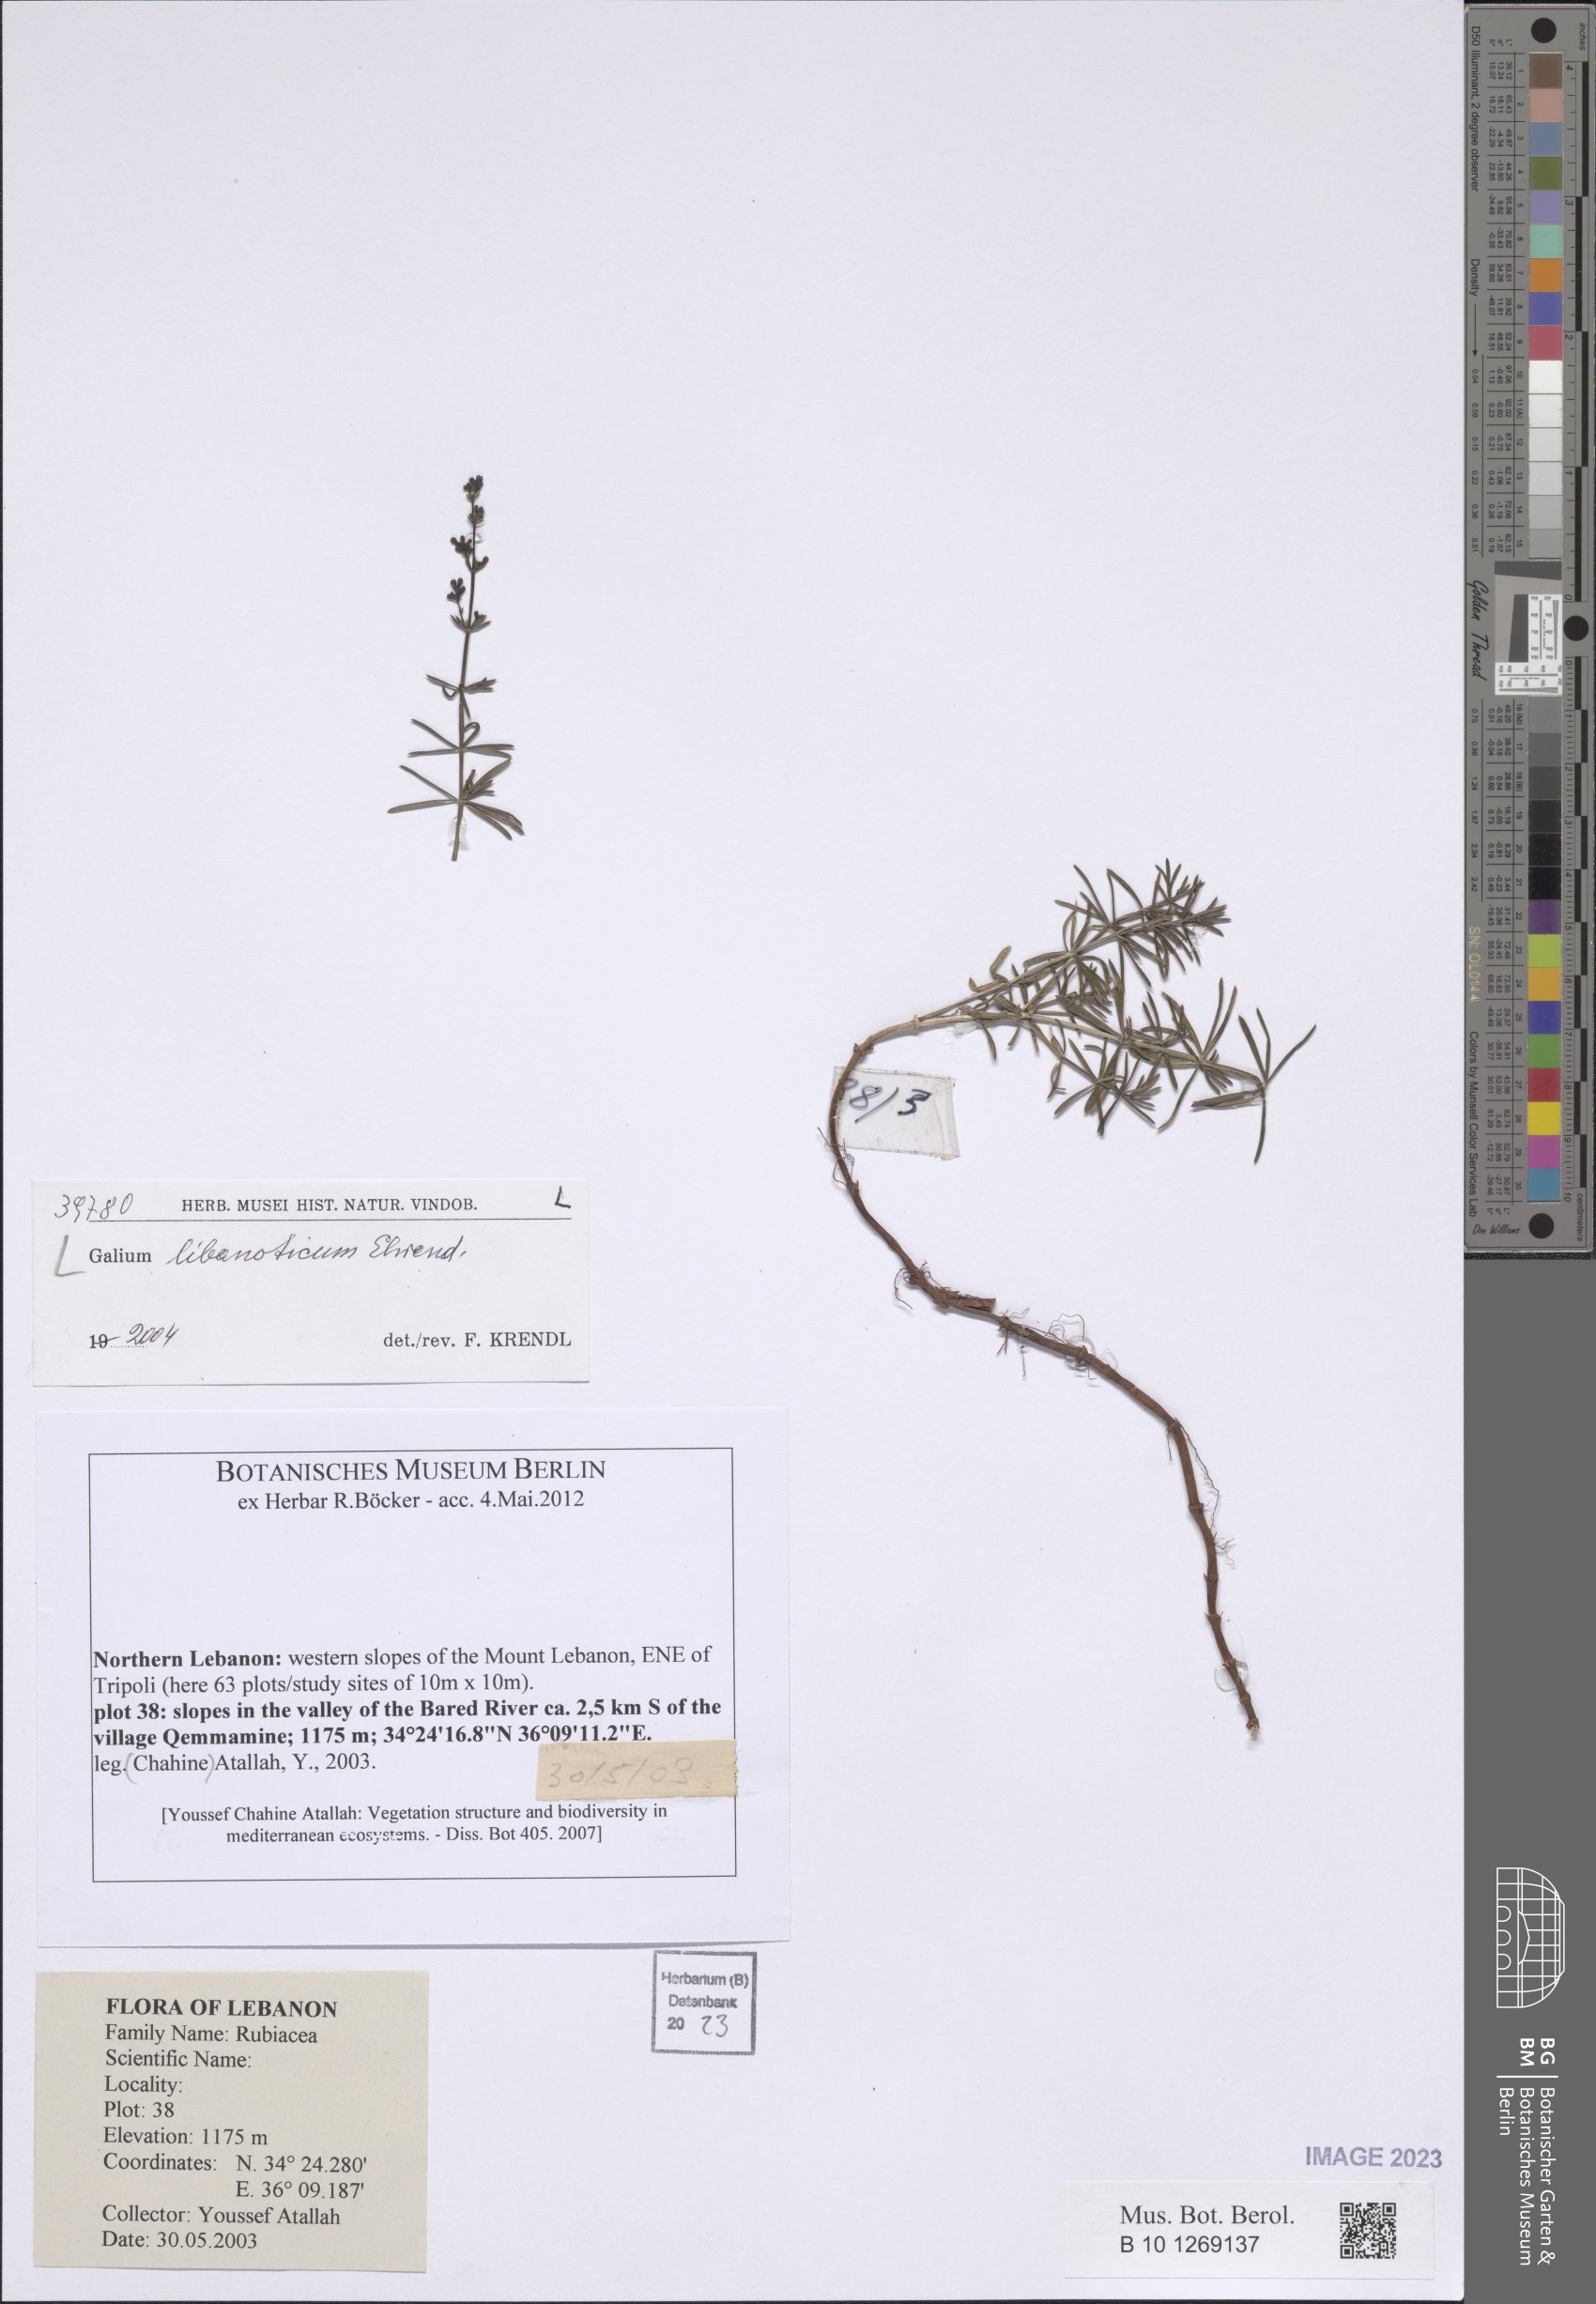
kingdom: Plantae
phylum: Tracheophyta
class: Magnoliopsida
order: Gentianales
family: Rubiaceae
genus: Galium
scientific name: Galium libanoticum
